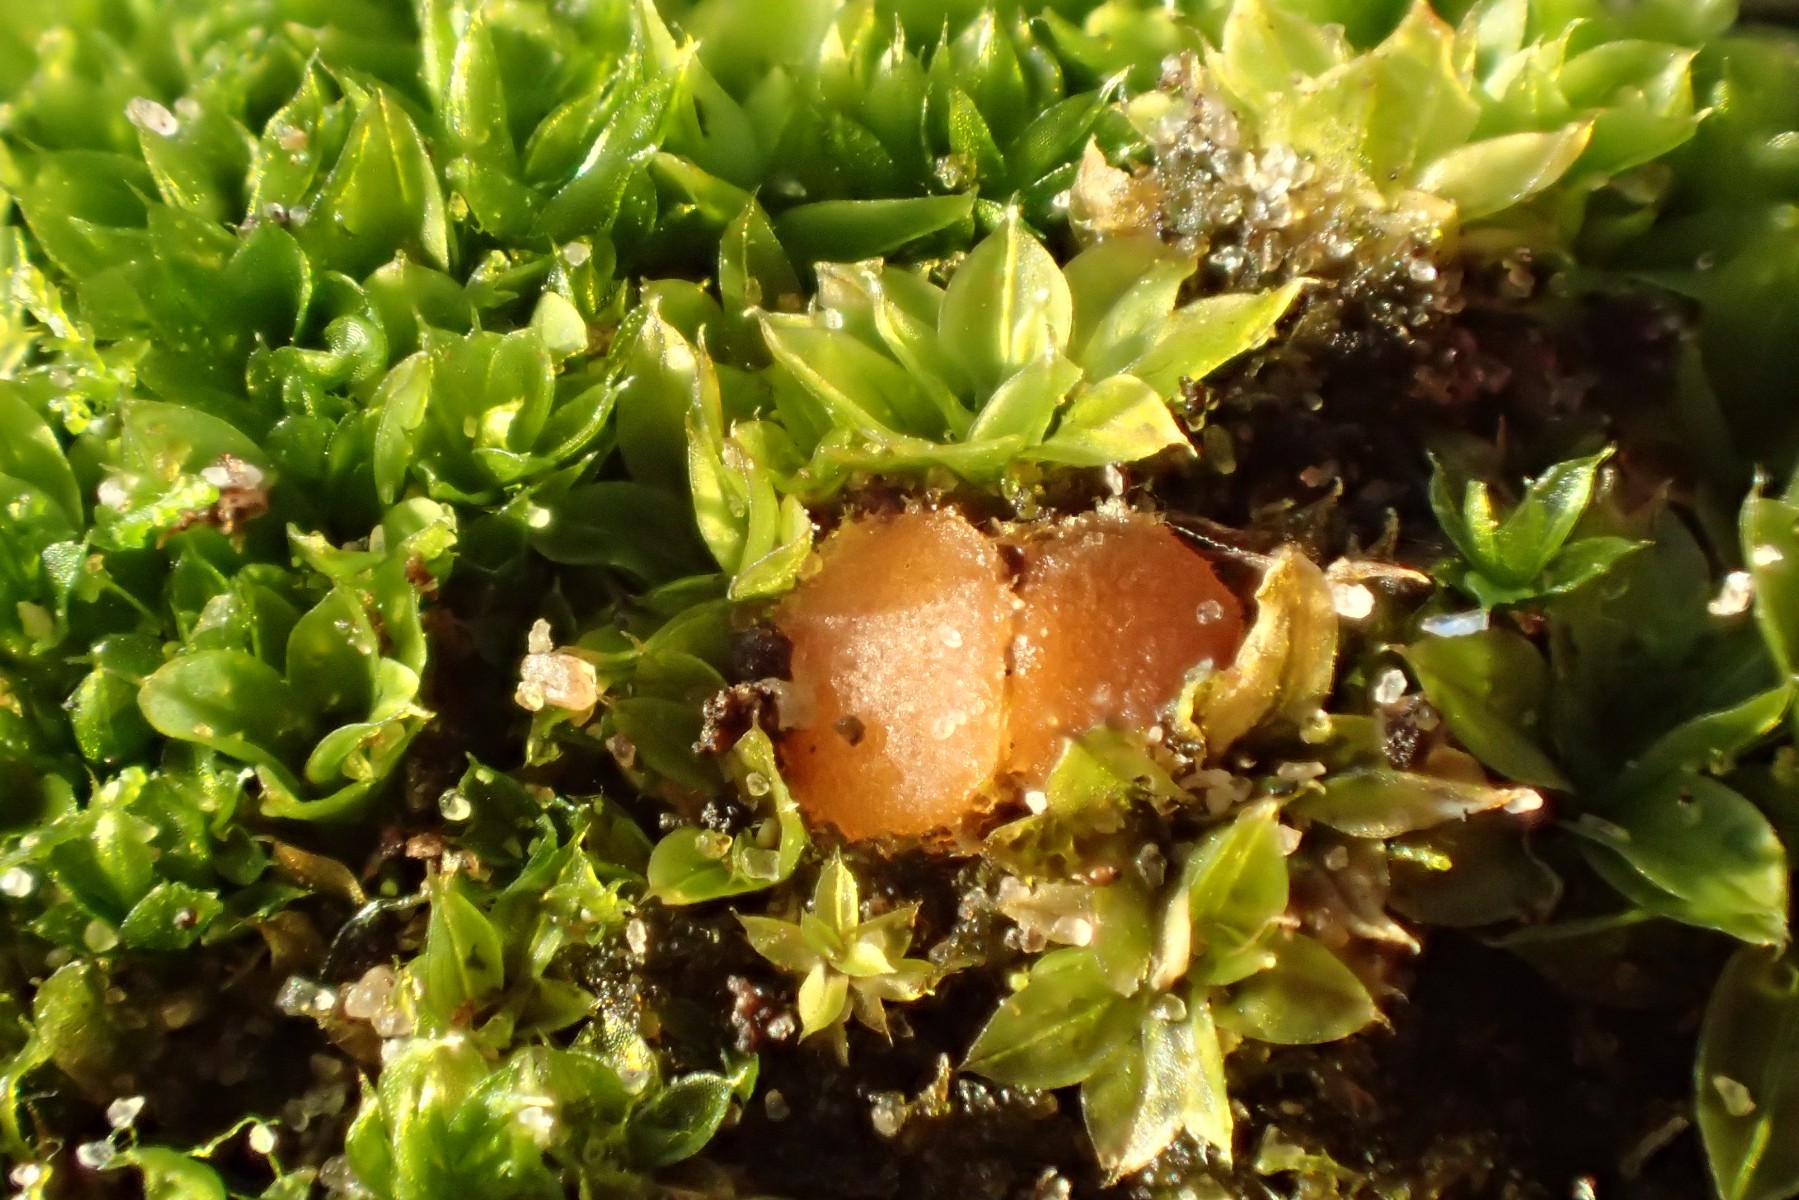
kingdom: Fungi
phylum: Ascomycota
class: Pezizomycetes
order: Pezizales
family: Pyronemataceae
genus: Octospora
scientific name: Octospora similis
